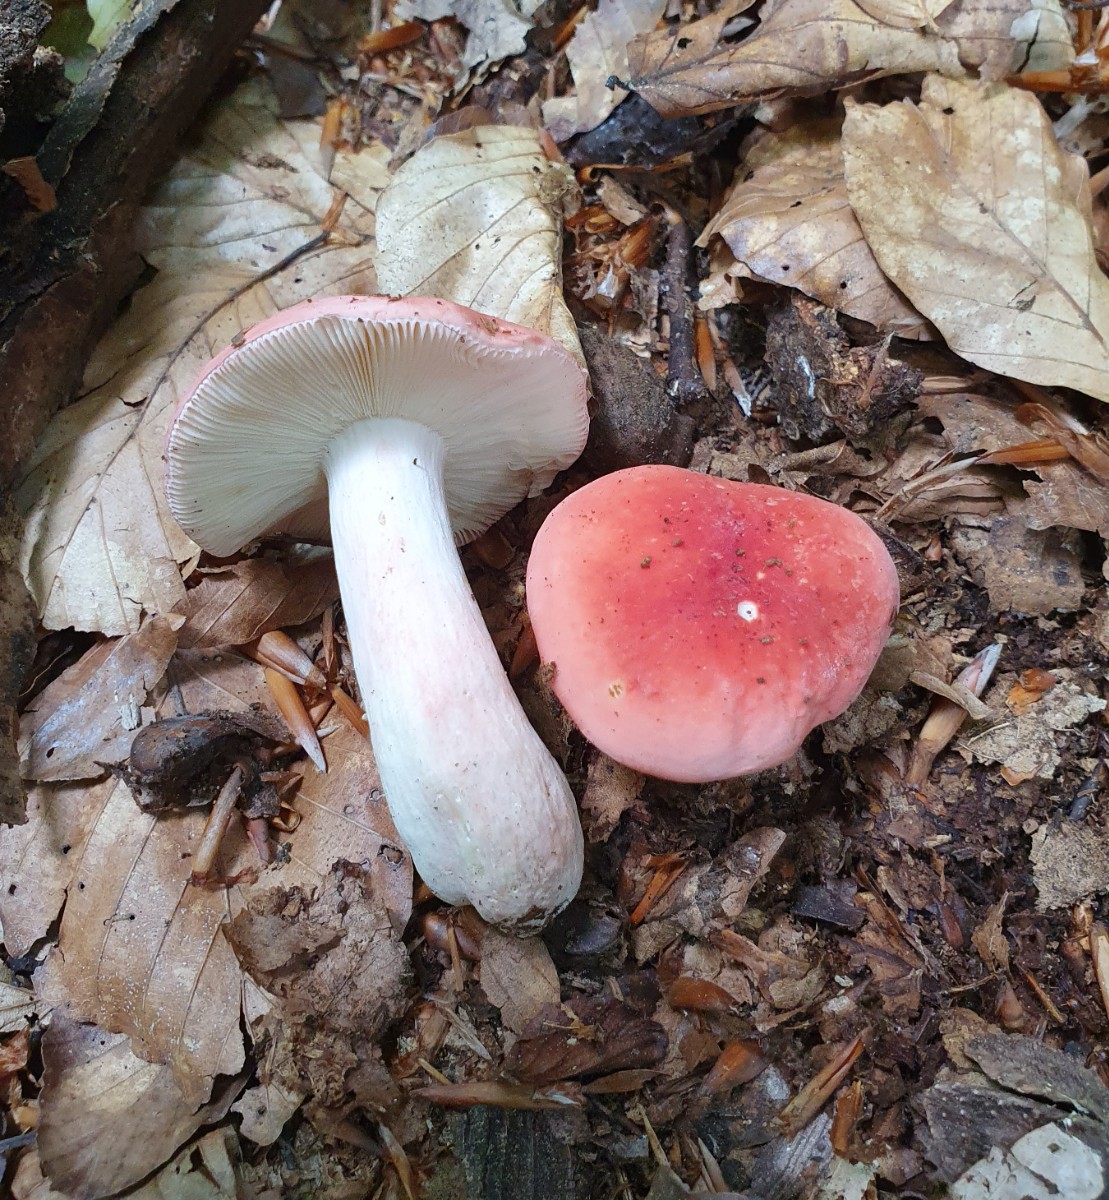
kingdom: Fungi
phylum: Basidiomycota
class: Agaricomycetes
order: Russulales
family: Russulaceae
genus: Russula
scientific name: Russula rosea
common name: fastkødet skørhat
